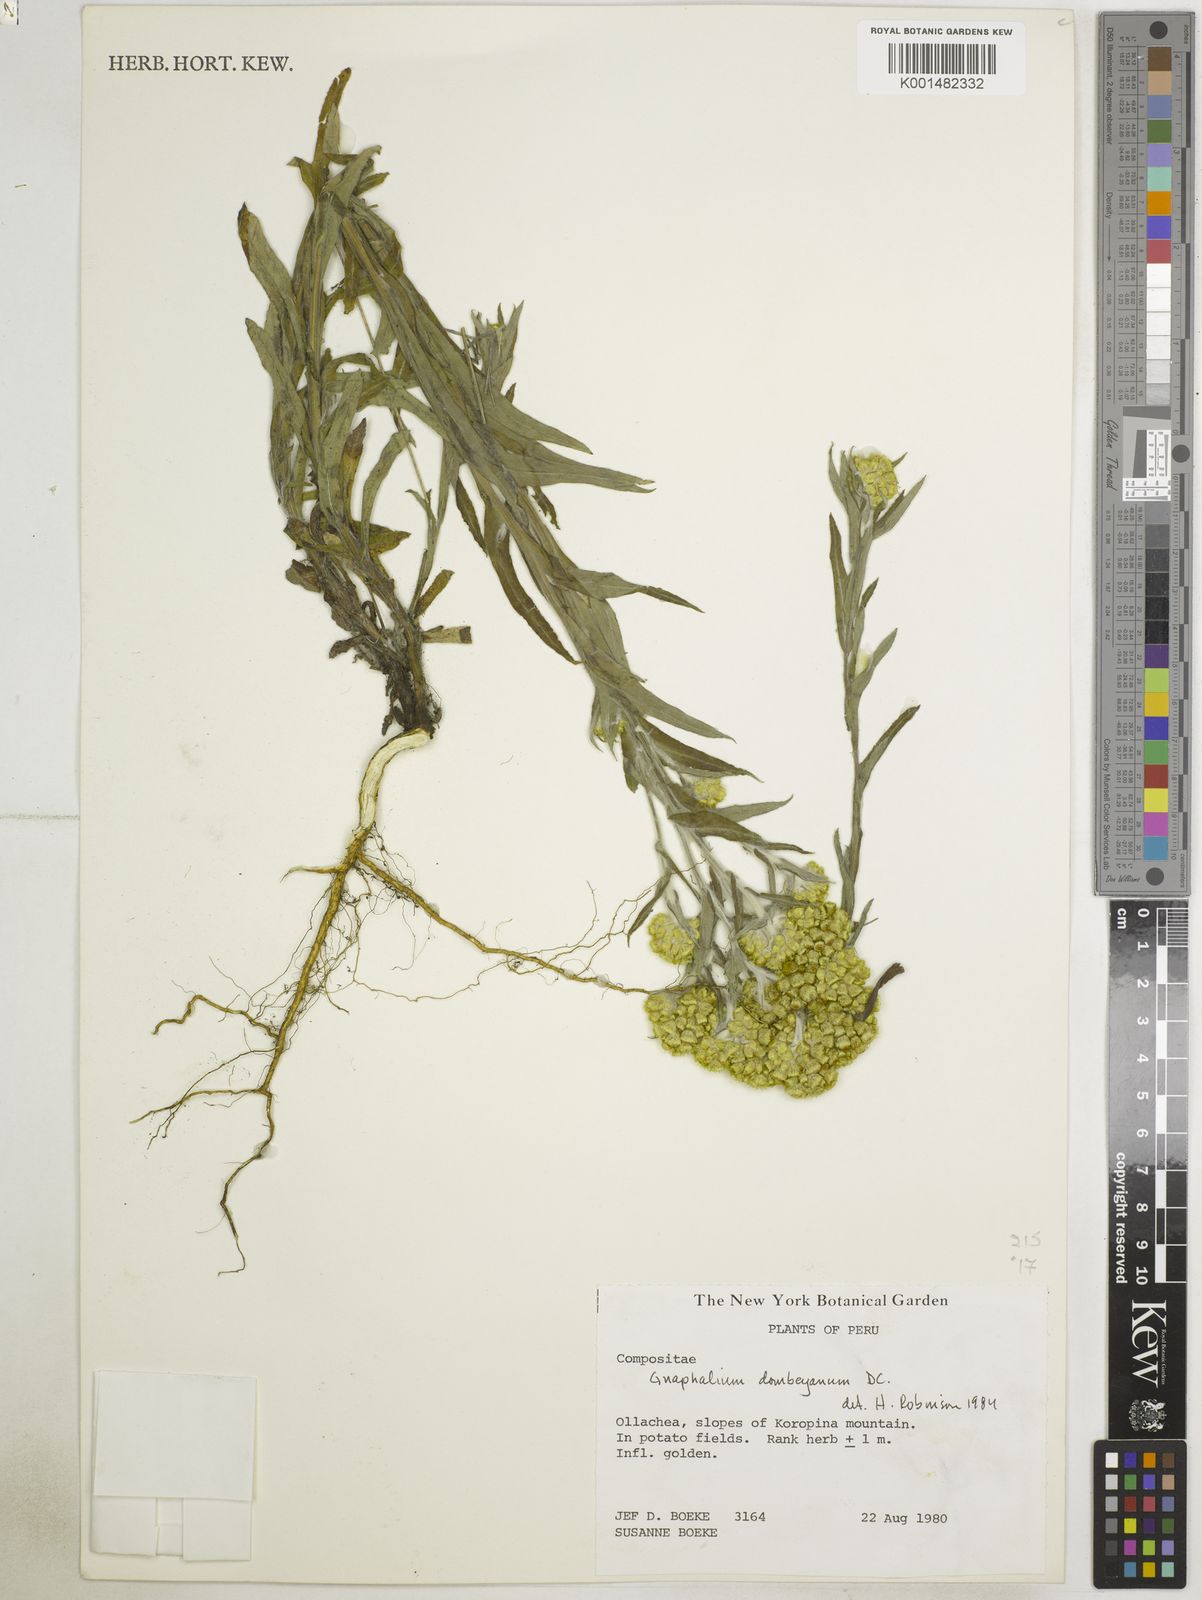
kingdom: Plantae
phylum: Tracheophyta
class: Magnoliopsida
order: Asterales
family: Asteraceae
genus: Pseudognaphalium
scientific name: Pseudognaphalium dysodes
